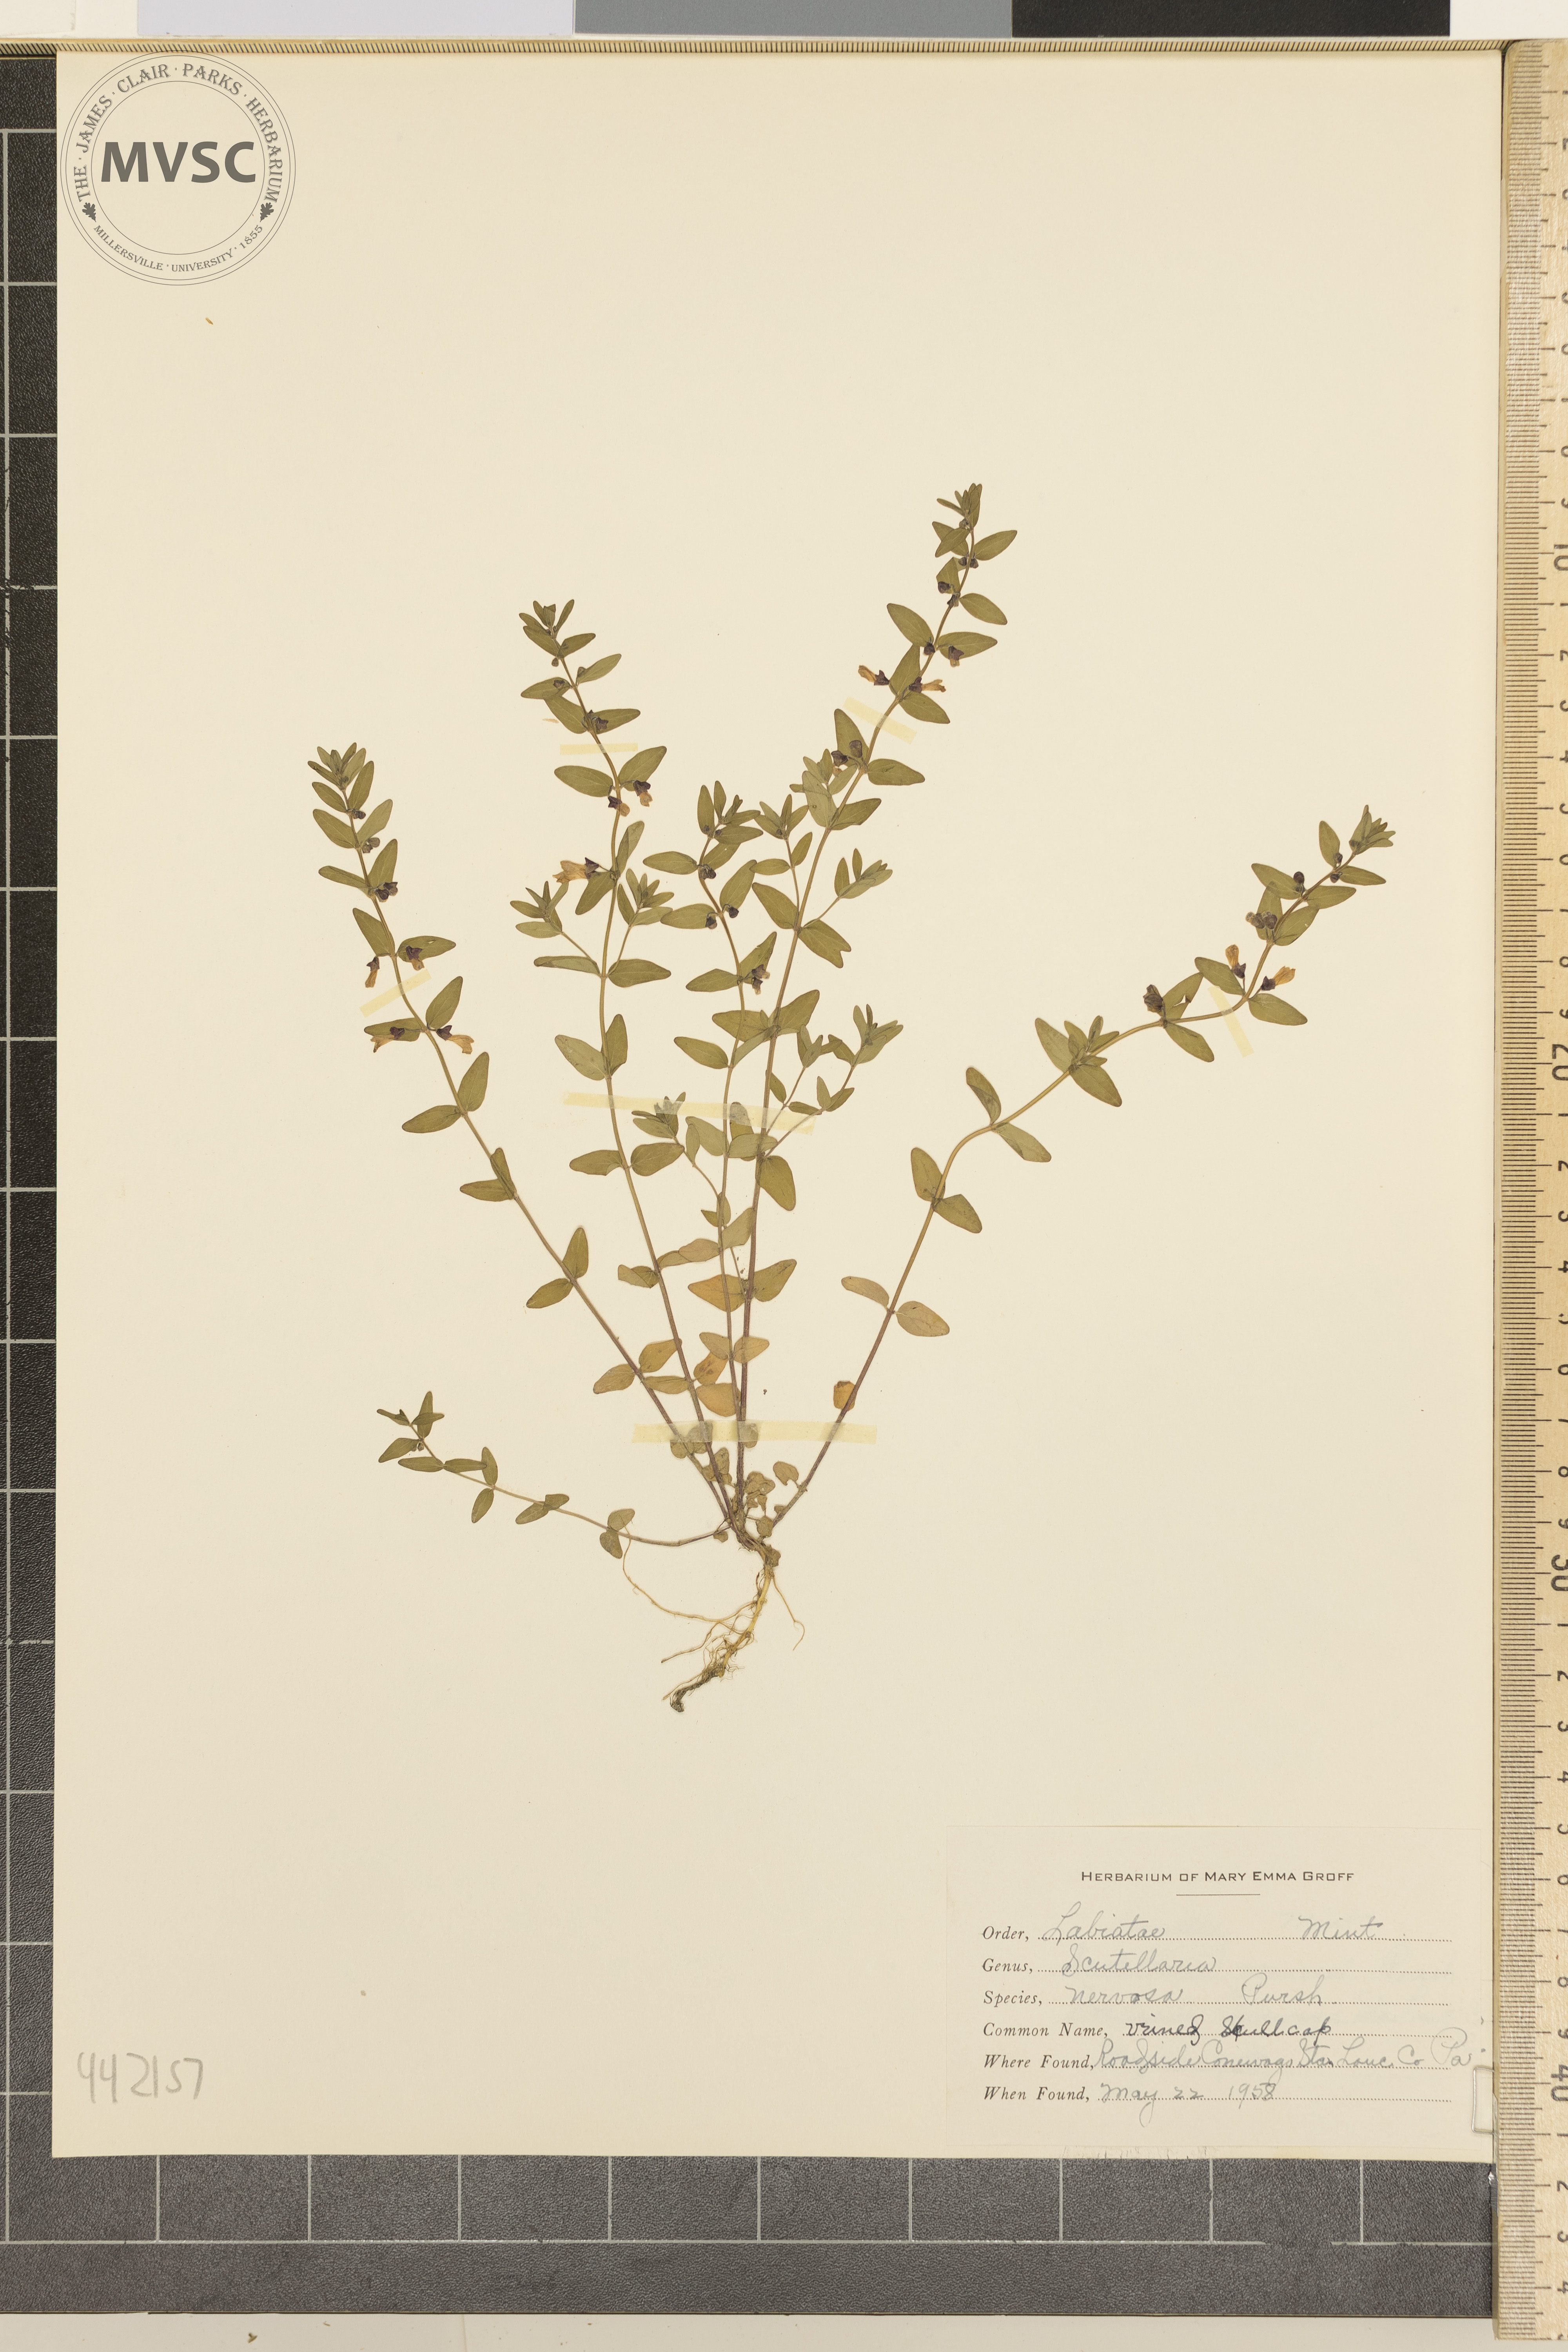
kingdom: Plantae
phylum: Tracheophyta
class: Magnoliopsida
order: Lamiales
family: Lamiaceae
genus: Scutellaria
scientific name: Scutellaria nervosa
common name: Veined skullcap
